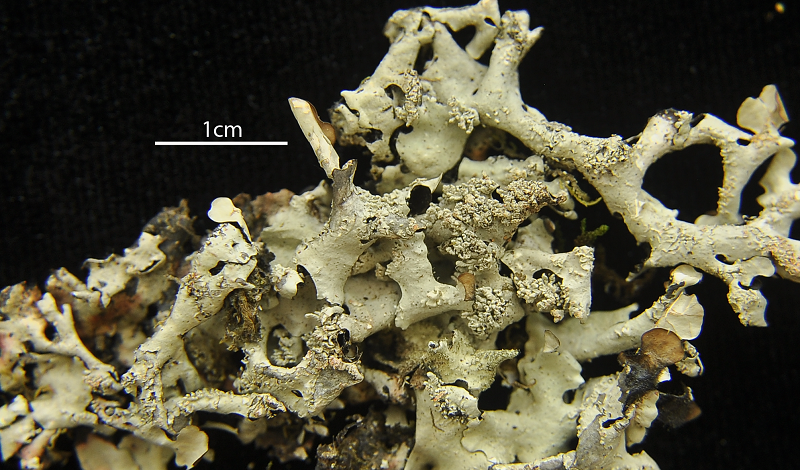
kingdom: Fungi
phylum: Ascomycota
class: Lecanoromycetes
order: Lecanorales
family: Parmeliaceae
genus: Parmotrema
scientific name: Parmotrema
